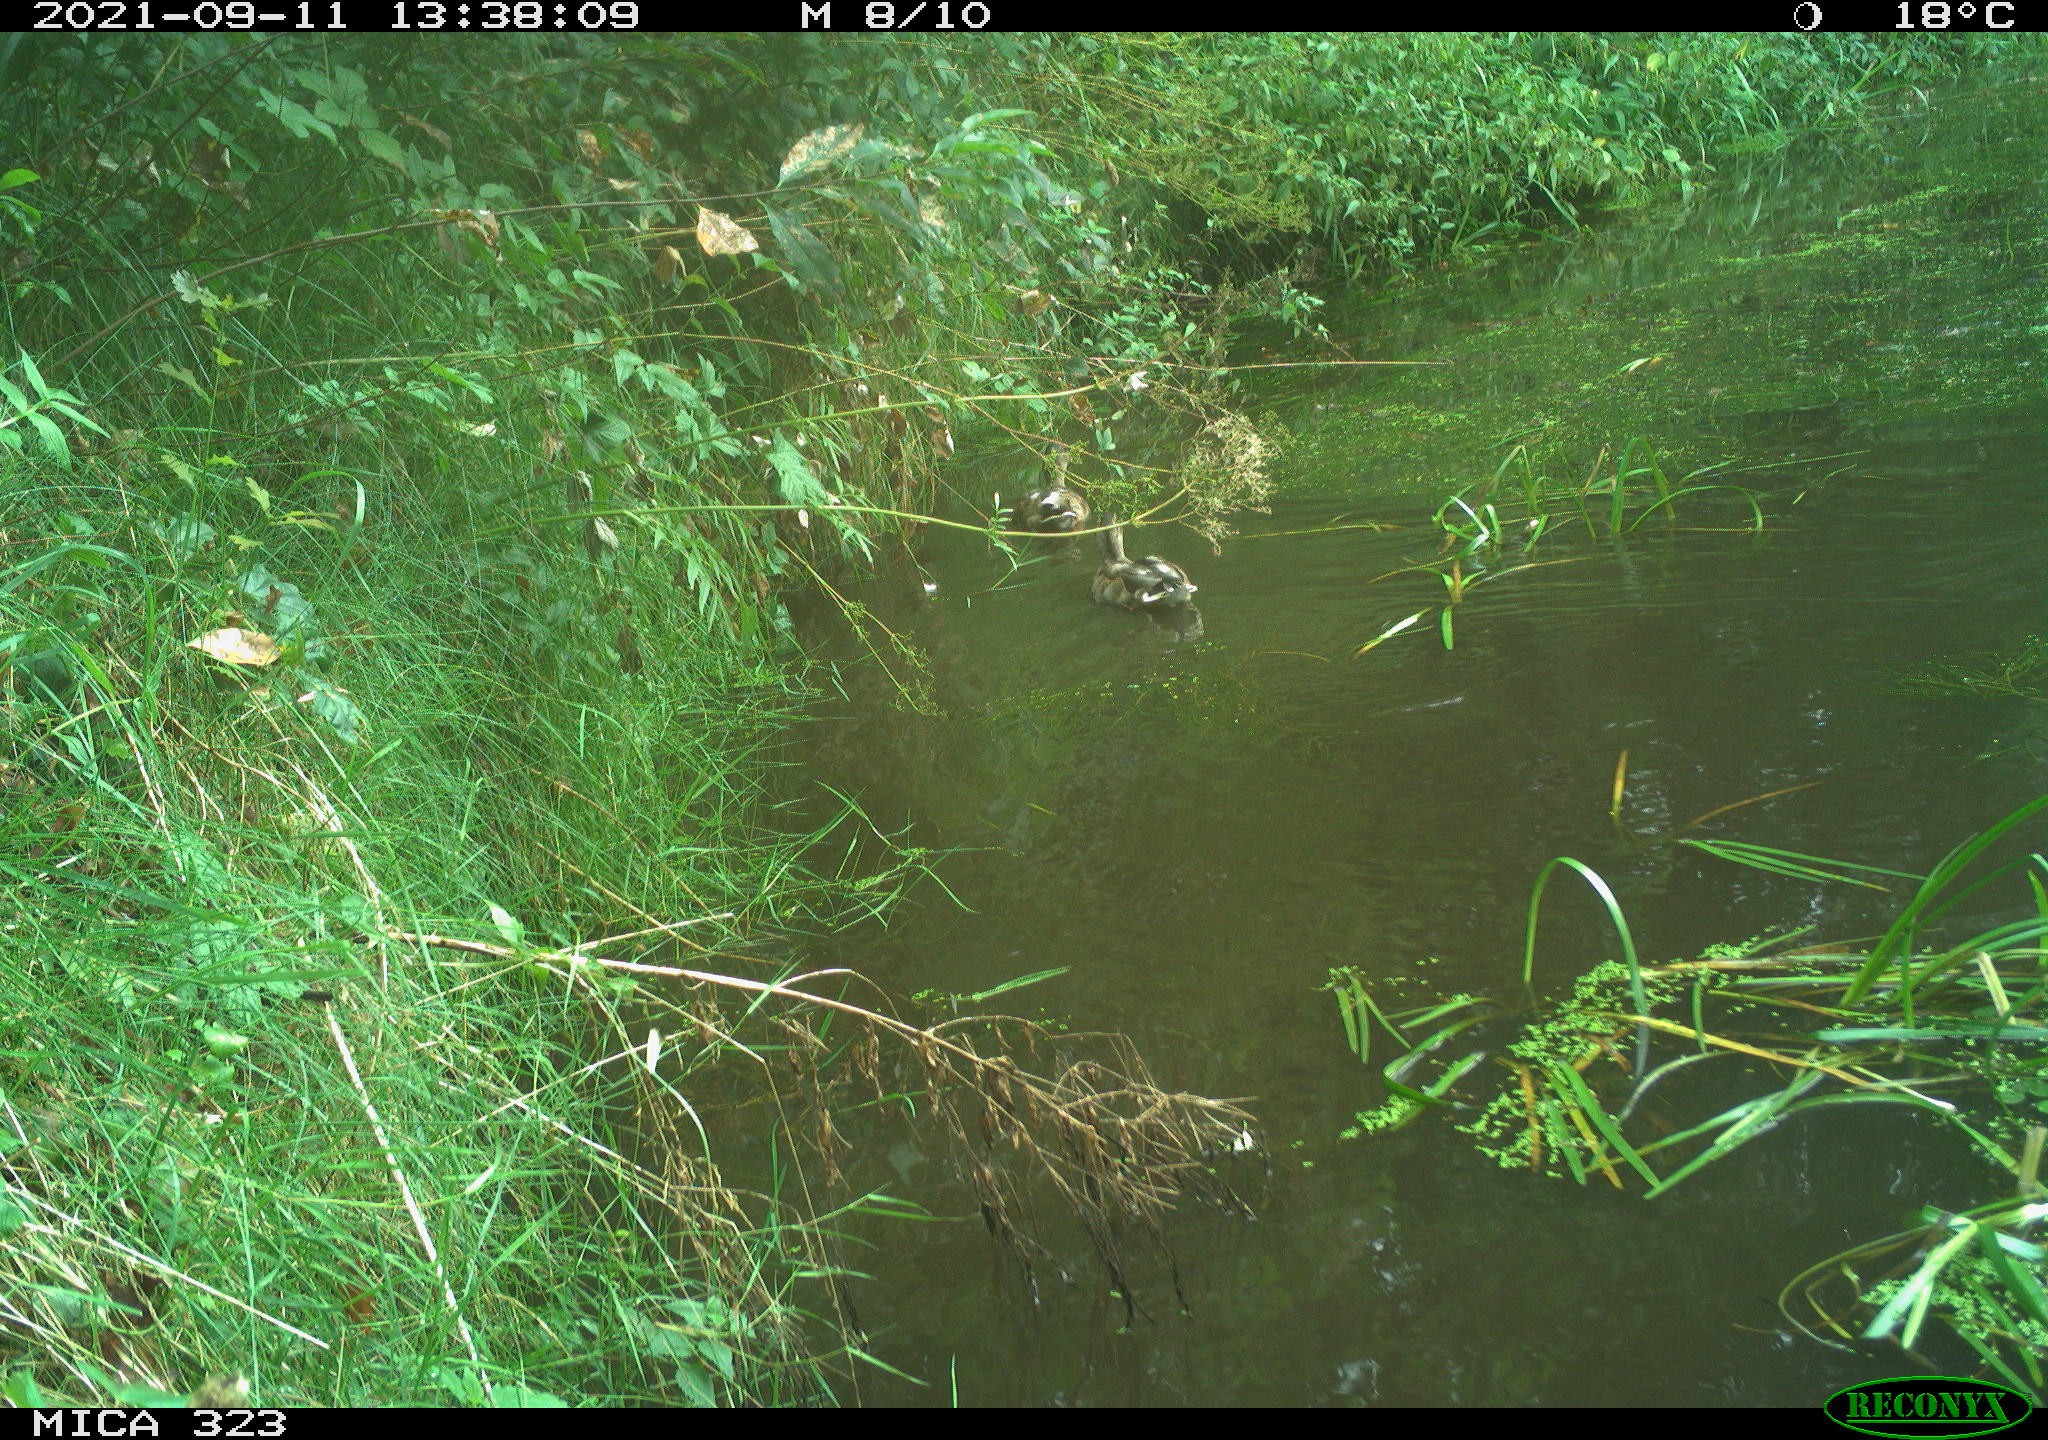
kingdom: Animalia
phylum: Chordata
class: Aves
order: Anseriformes
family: Anatidae
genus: Anas
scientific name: Anas platyrhynchos
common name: Mallard
